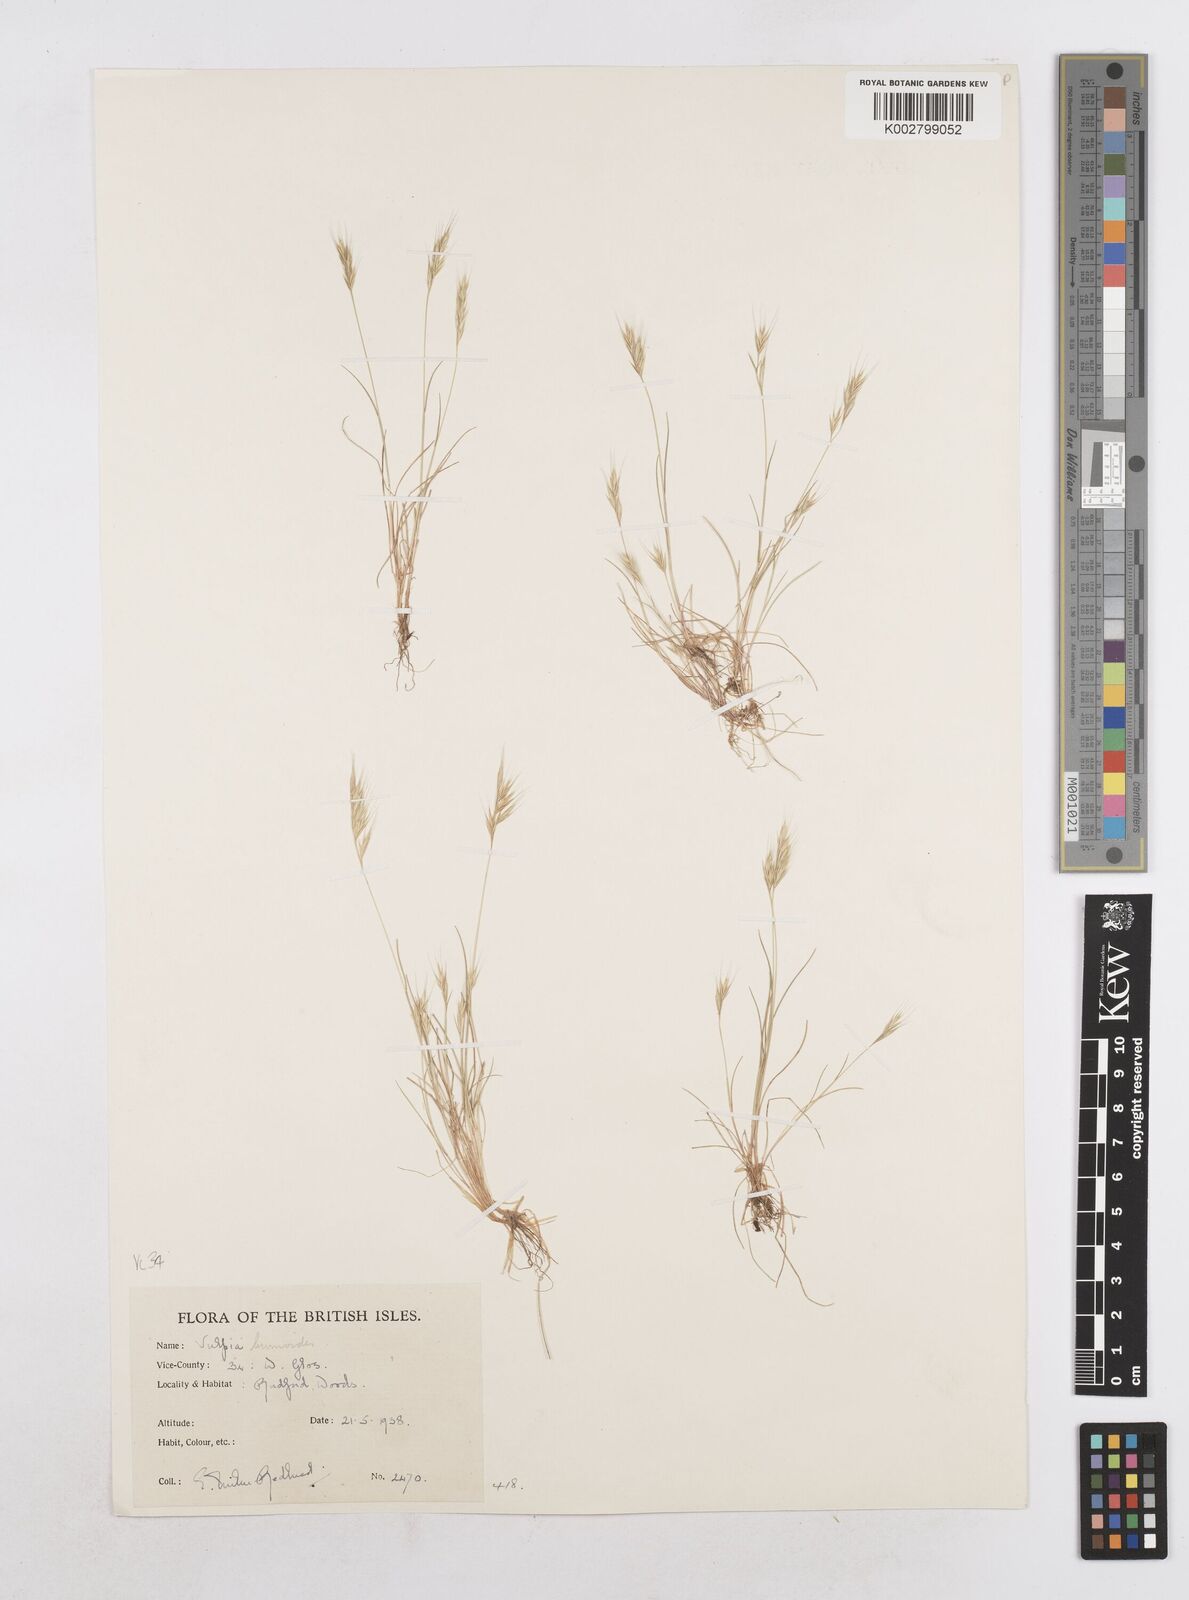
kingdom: Plantae
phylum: Tracheophyta
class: Liliopsida
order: Poales
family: Poaceae
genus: Festuca
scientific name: Festuca bromoides
